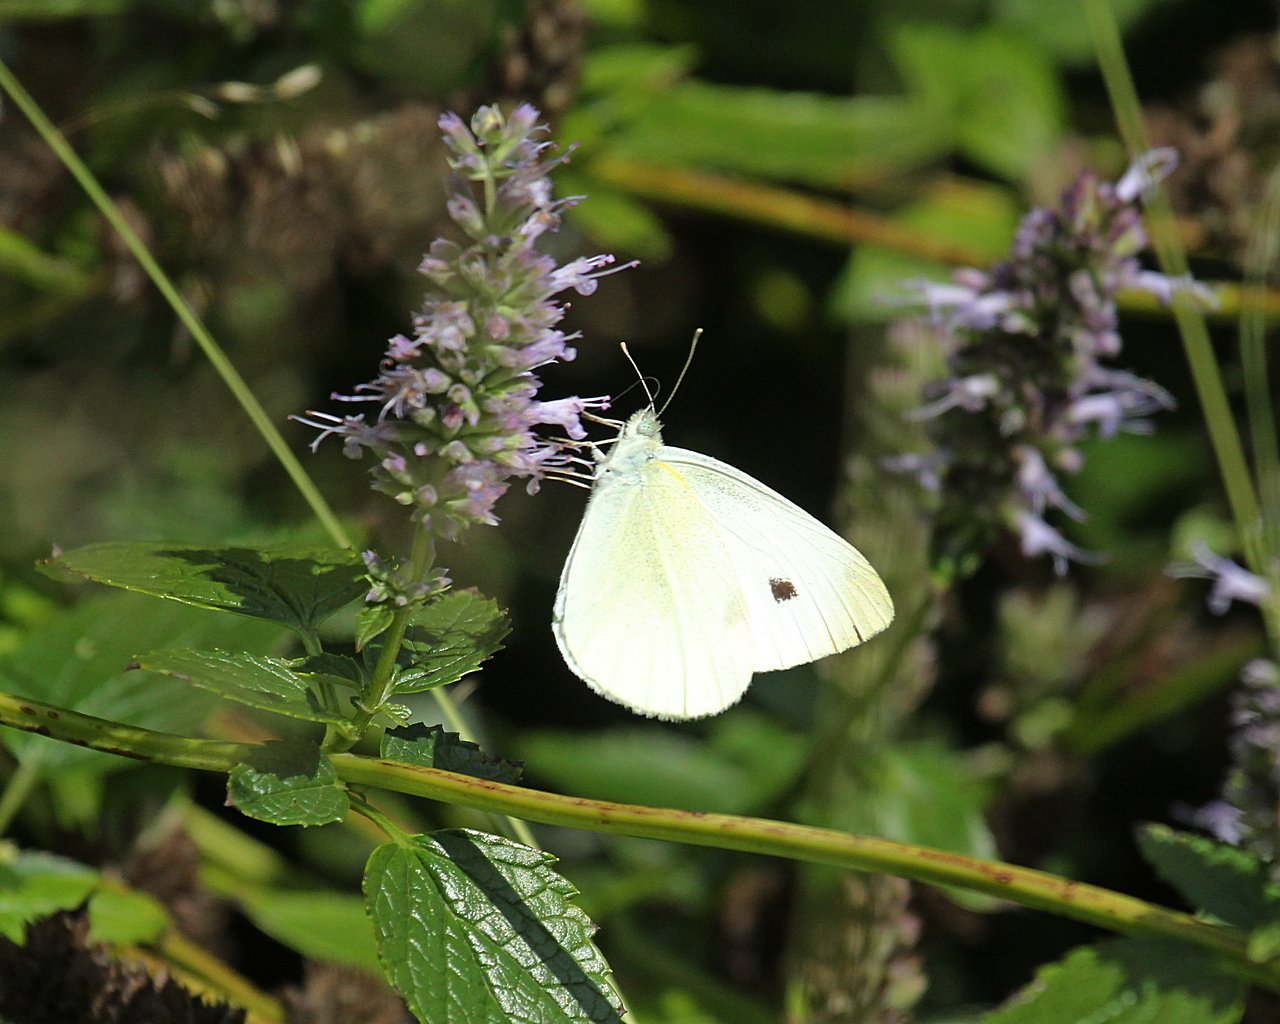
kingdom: Animalia
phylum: Arthropoda
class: Insecta
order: Lepidoptera
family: Pieridae
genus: Pieris
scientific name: Pieris rapae
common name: Cabbage White
